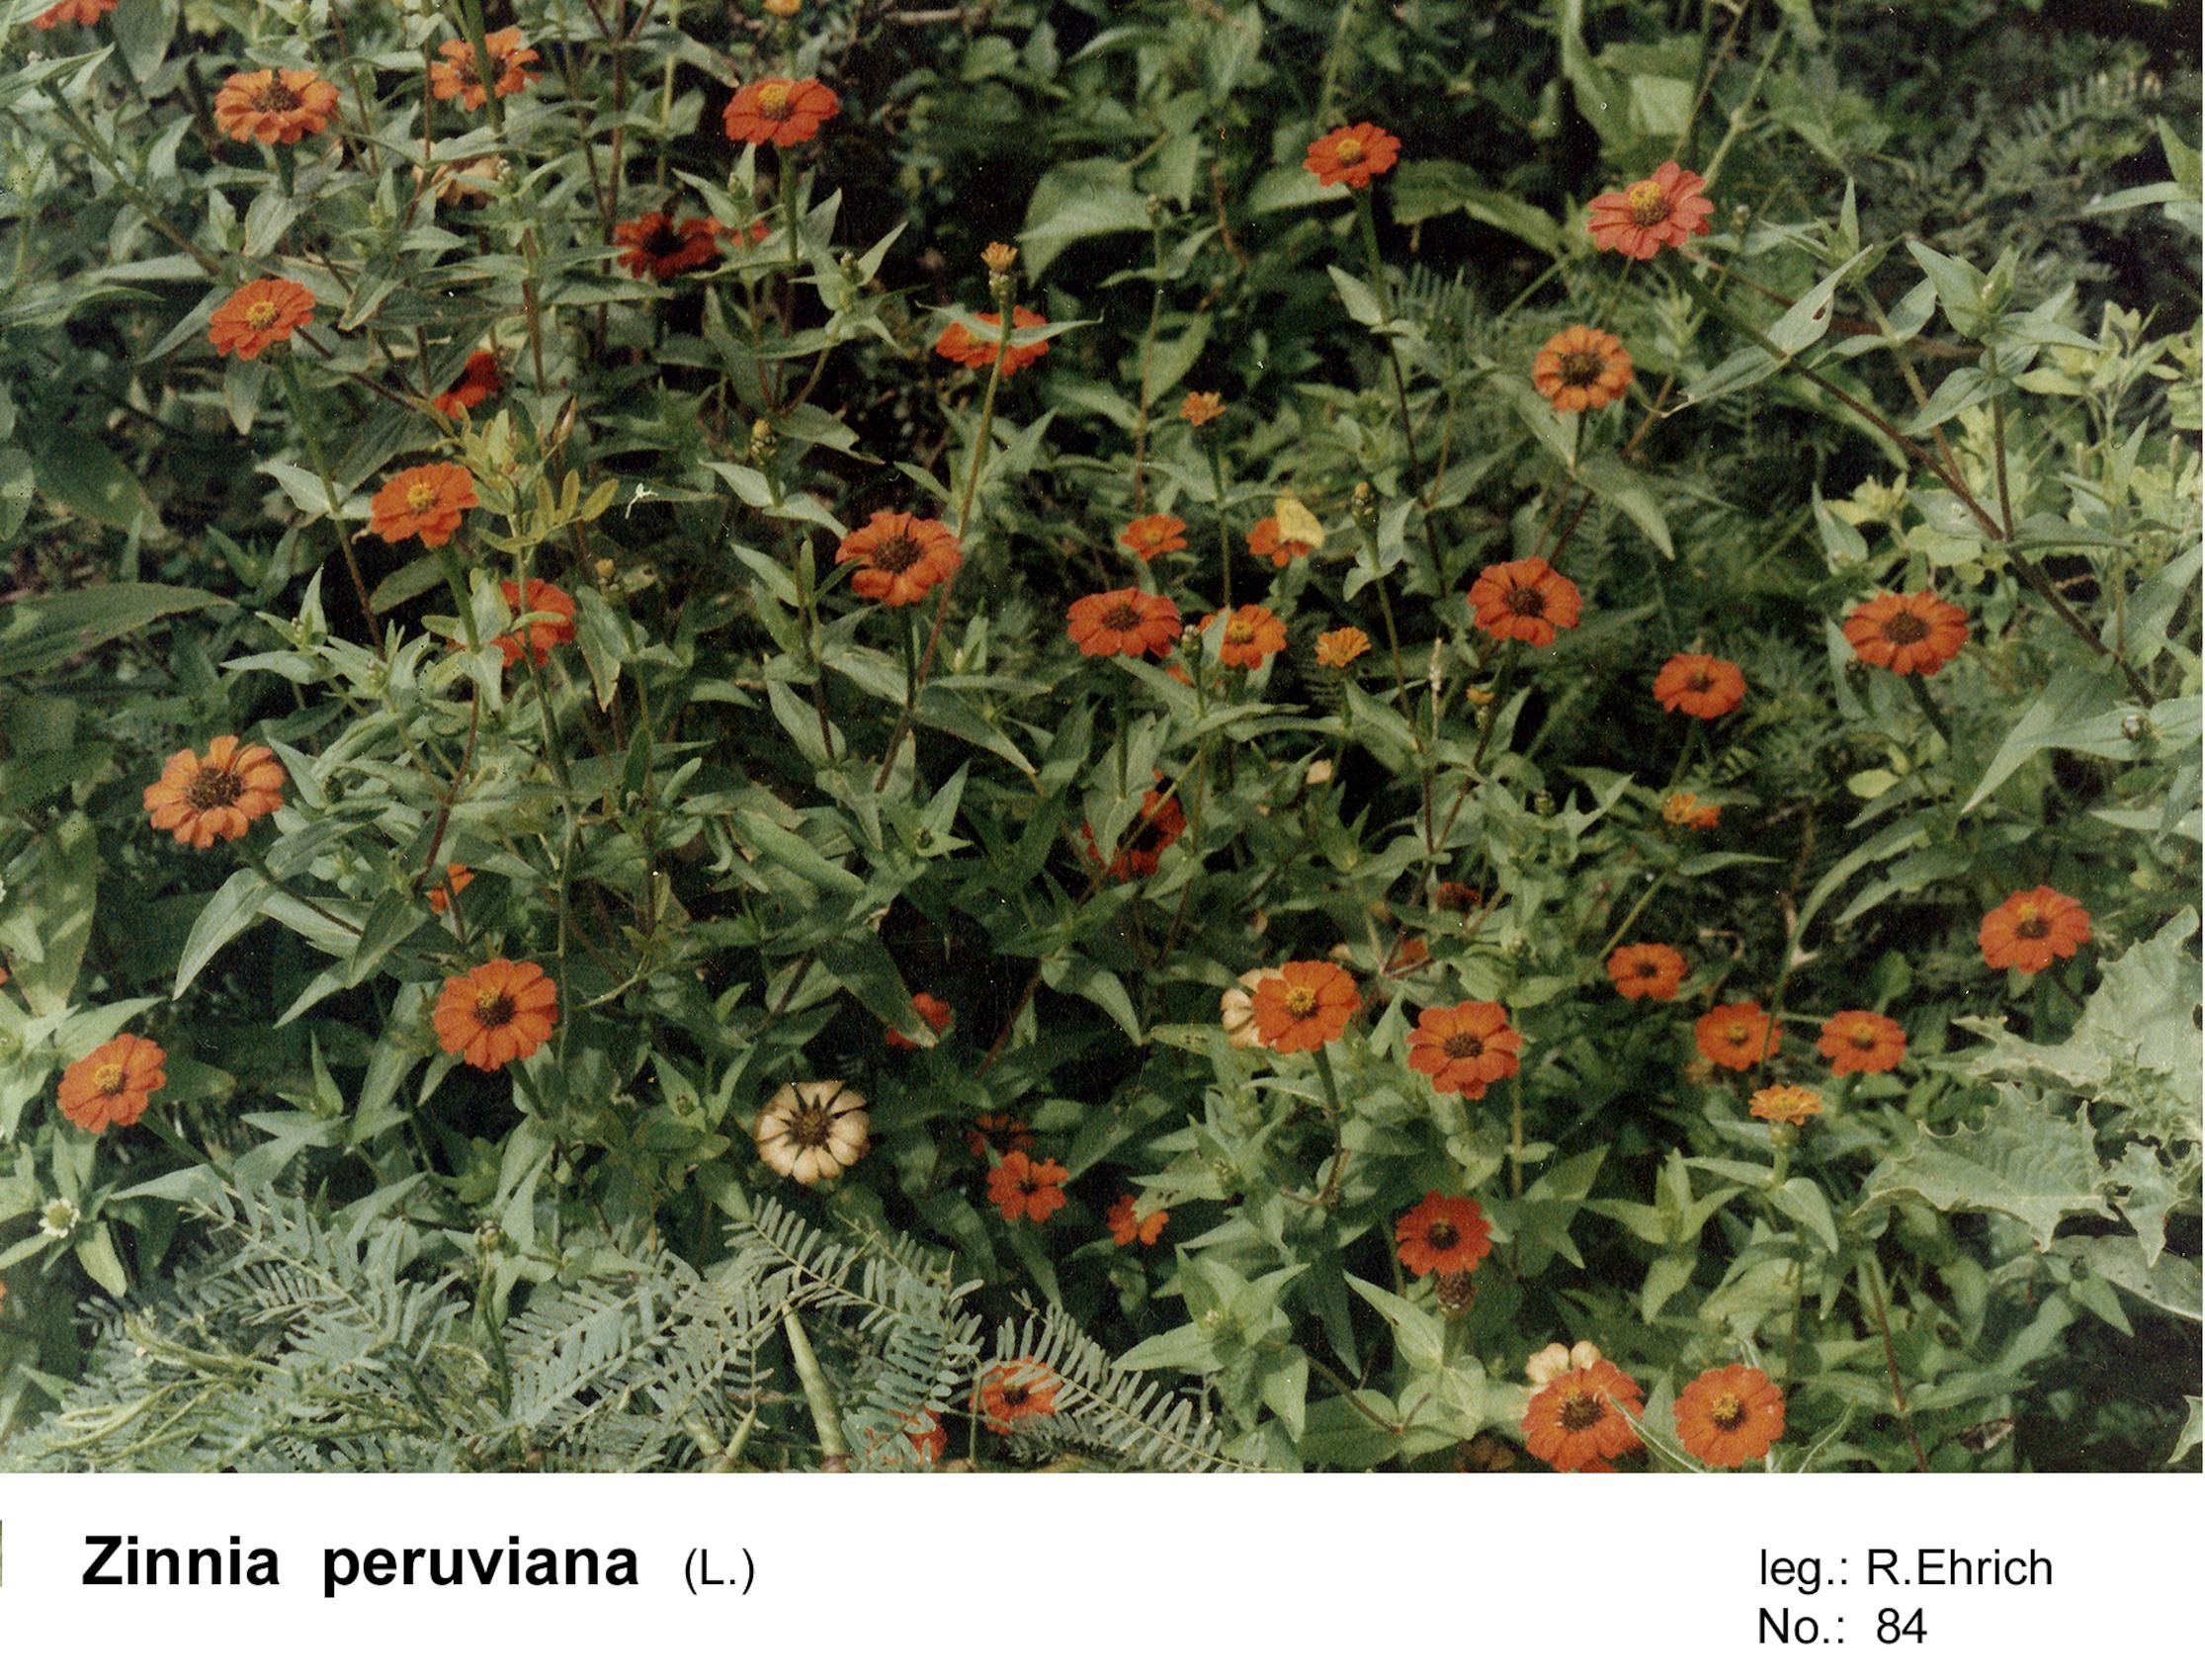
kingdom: Plantae
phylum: Tracheophyta
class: Magnoliopsida
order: Asterales
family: Asteraceae
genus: Zinnia
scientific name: Zinnia peruviana
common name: Peruvian zinnia
